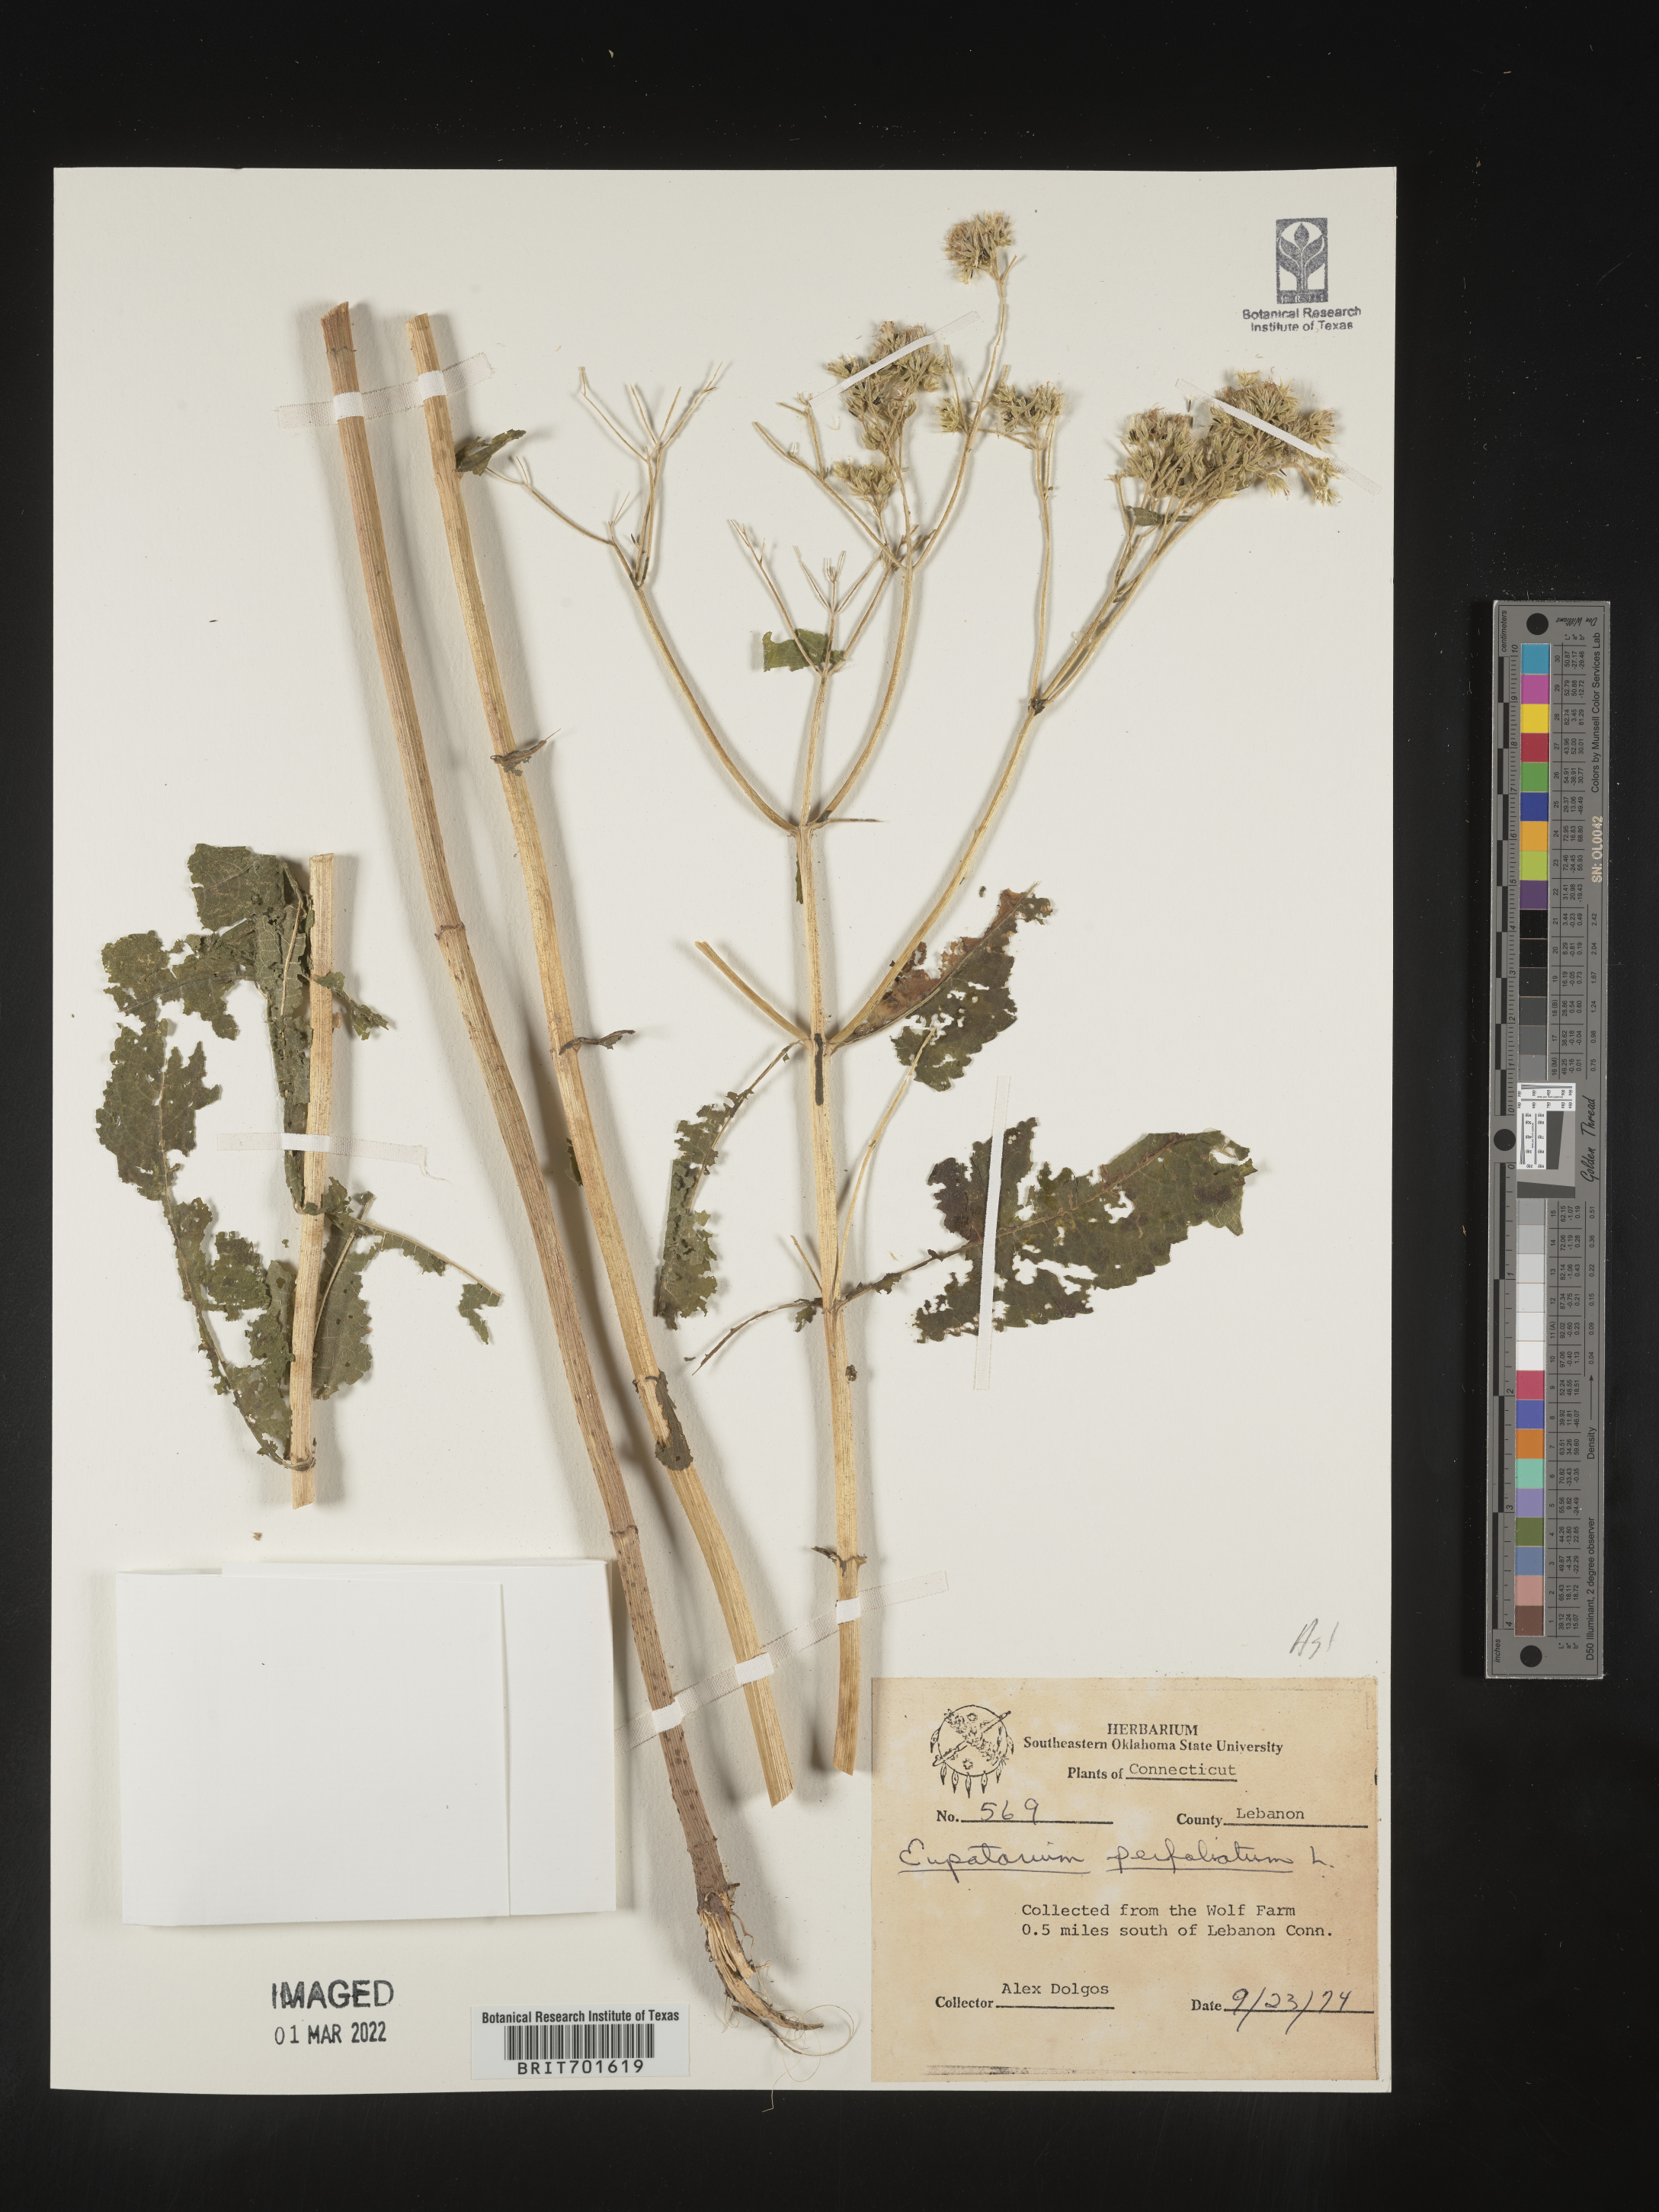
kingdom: Plantae
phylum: Tracheophyta
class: Magnoliopsida
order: Asterales
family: Asteraceae
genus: Eupatorium
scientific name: Eupatorium perfoliatum
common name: Boneset
